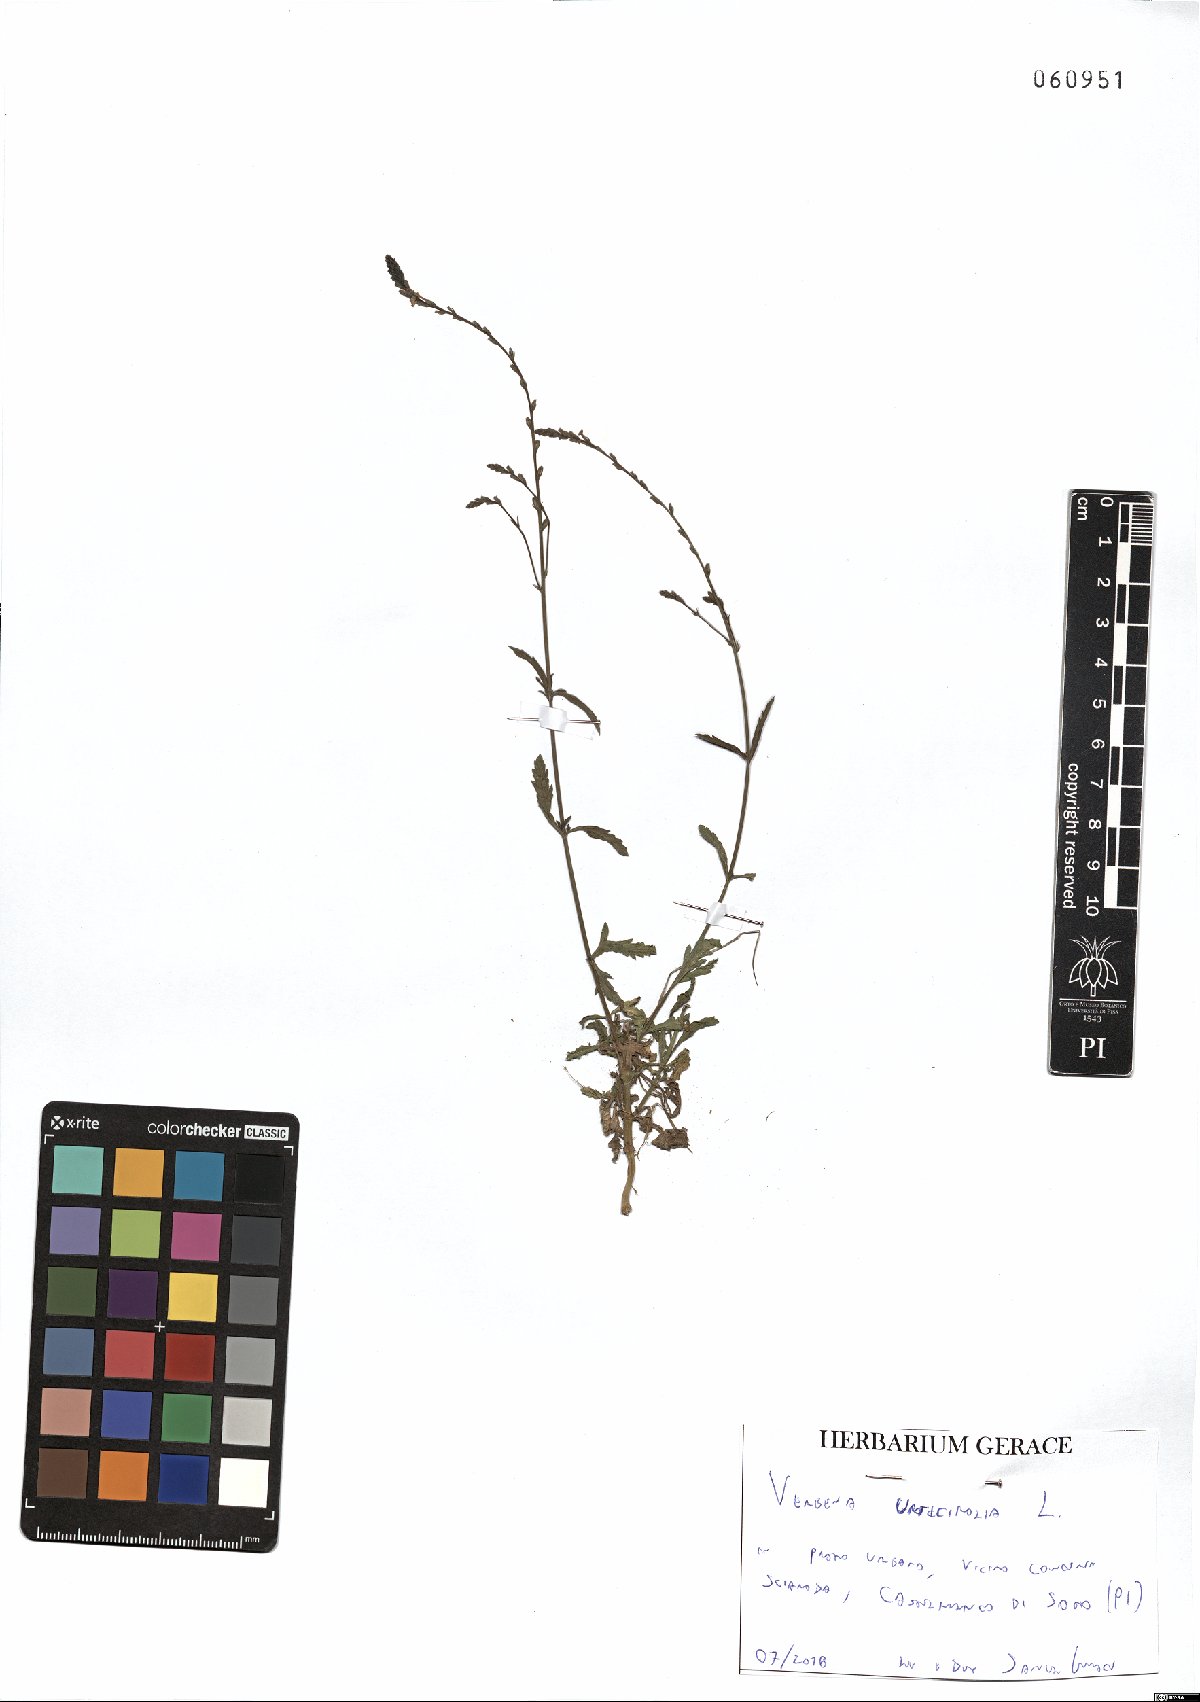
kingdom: Plantae
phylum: Tracheophyta
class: Magnoliopsida
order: Lamiales
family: Verbenaceae
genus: Verbena
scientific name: Verbena urticifolia
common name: Nettle-leaved vervain
